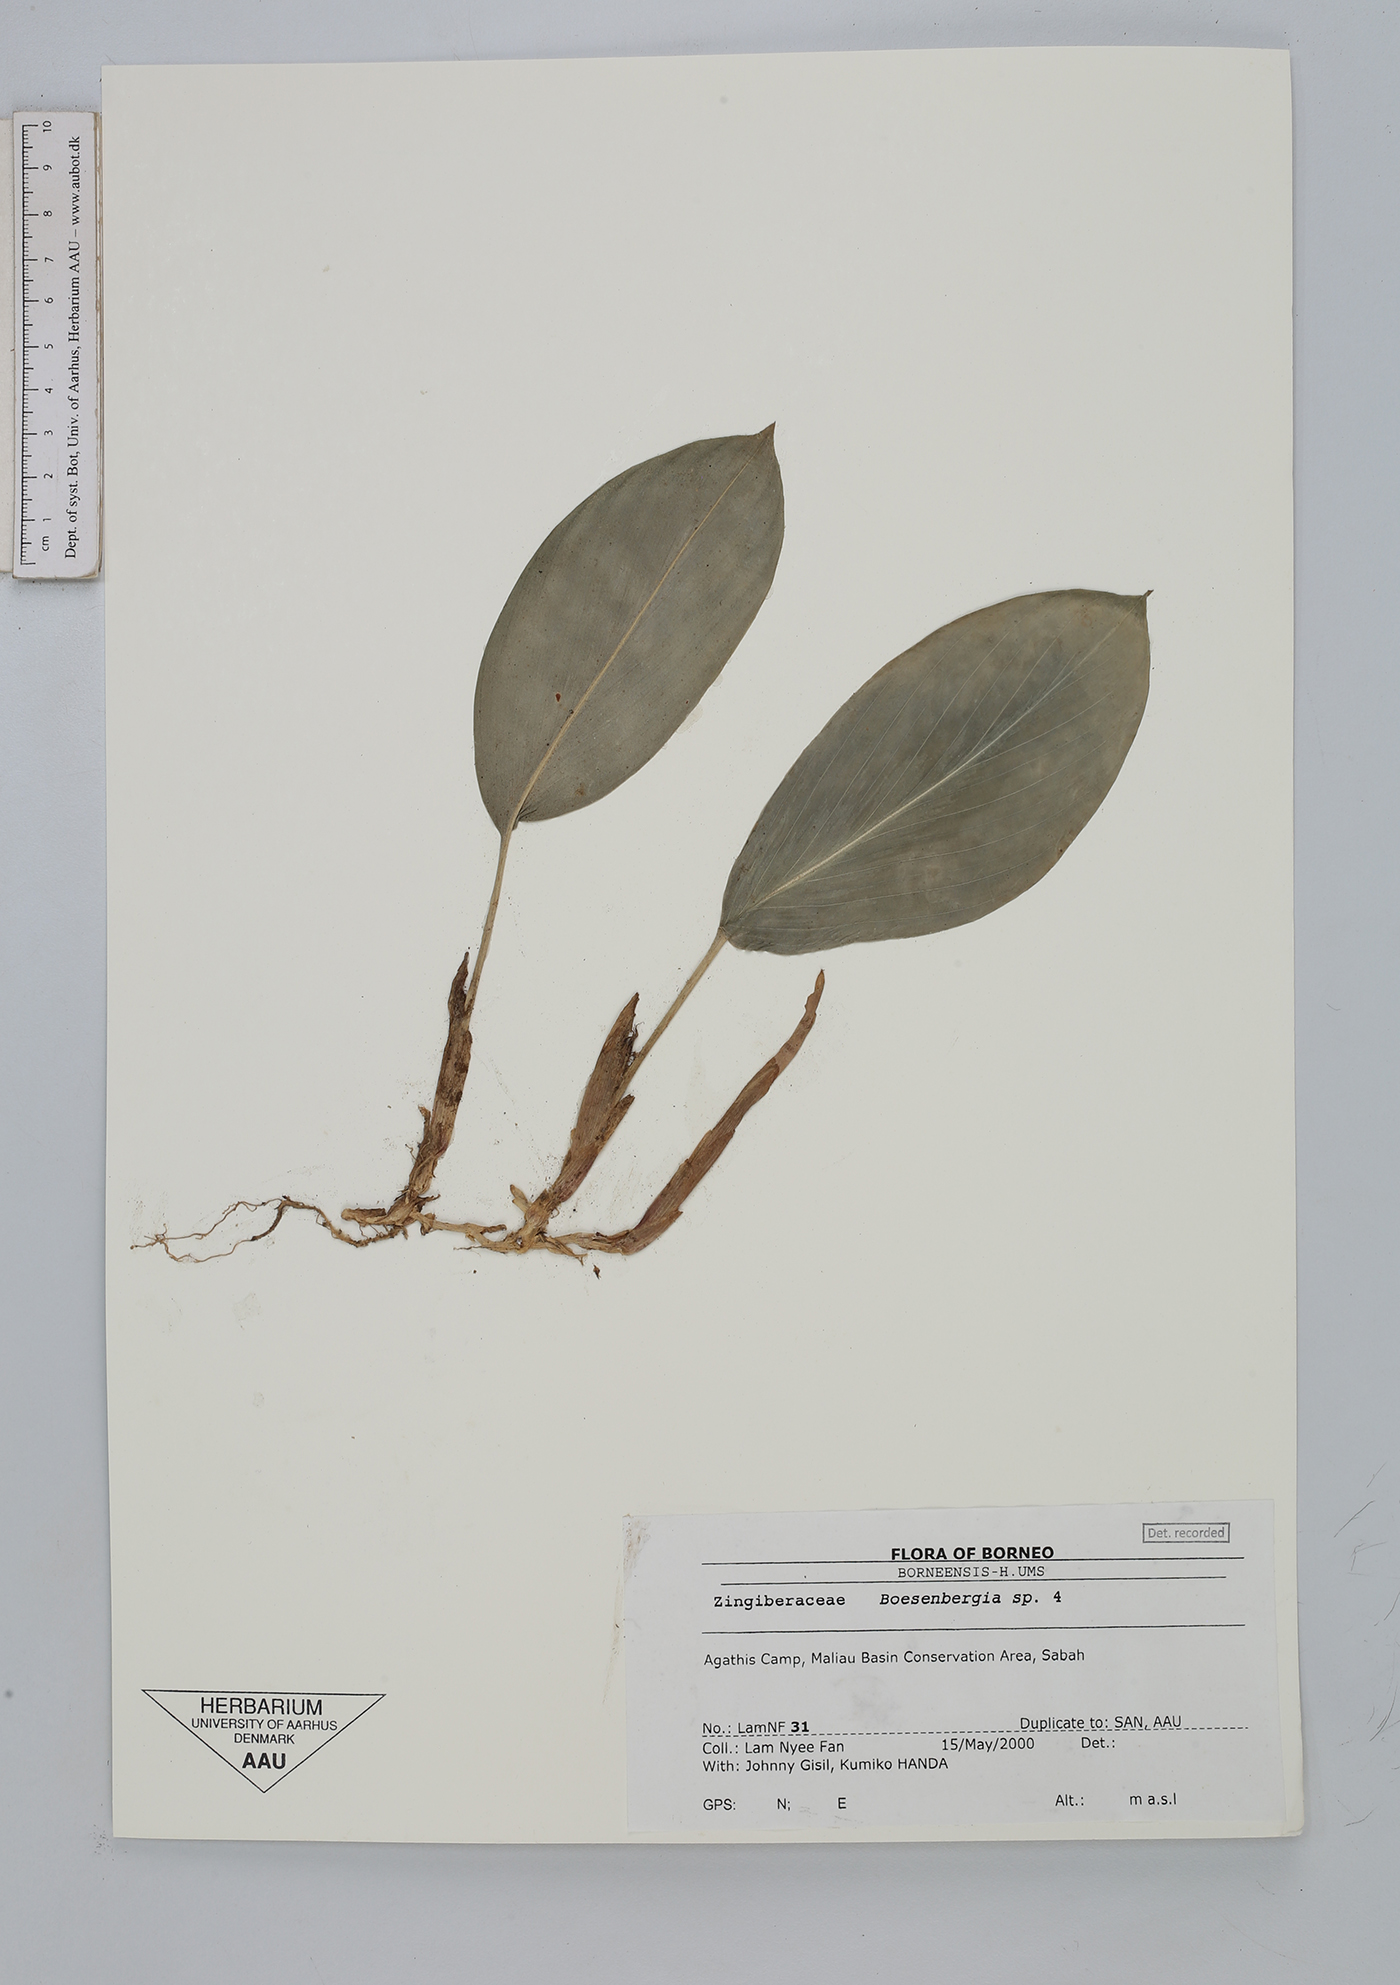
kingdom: Plantae
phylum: Tracheophyta
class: Liliopsida
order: Zingiberales
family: Zingiberaceae
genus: Boesenbergia
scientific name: Boesenbergia
